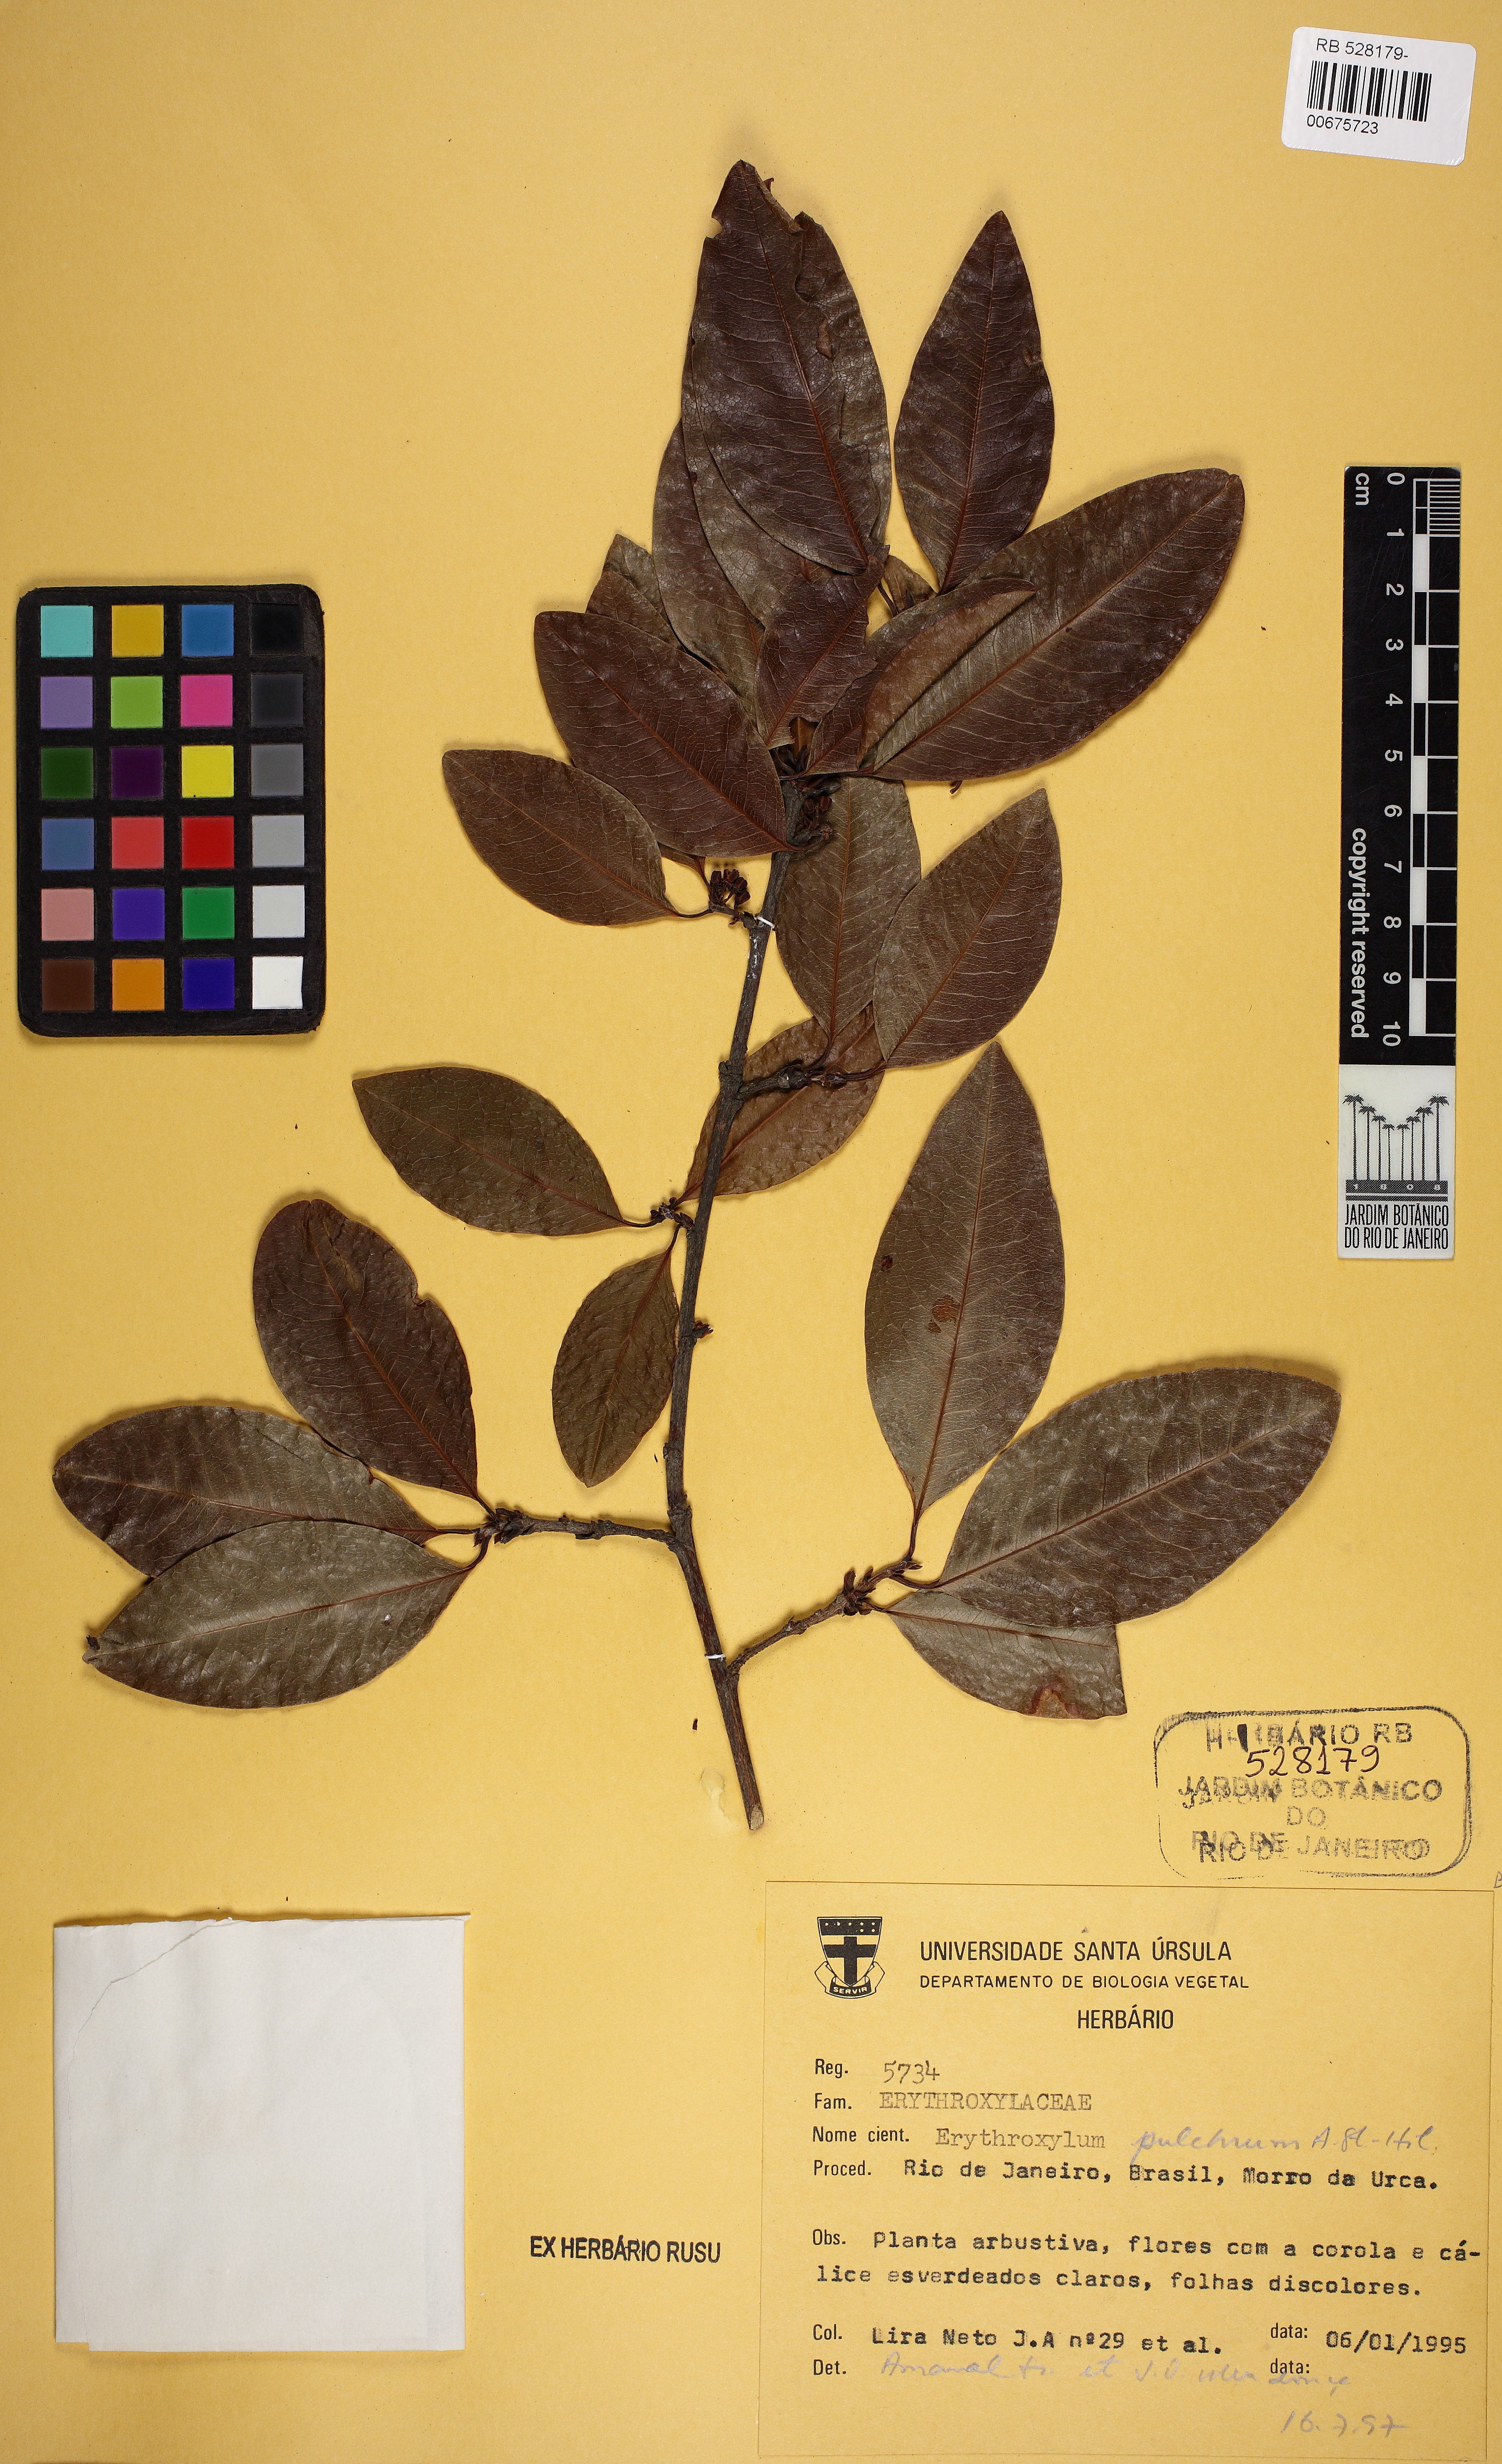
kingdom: Plantae
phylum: Tracheophyta
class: Magnoliopsida
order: Malpighiales
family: Erythroxylaceae
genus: Erythroxylum
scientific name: Erythroxylum pulchrum
